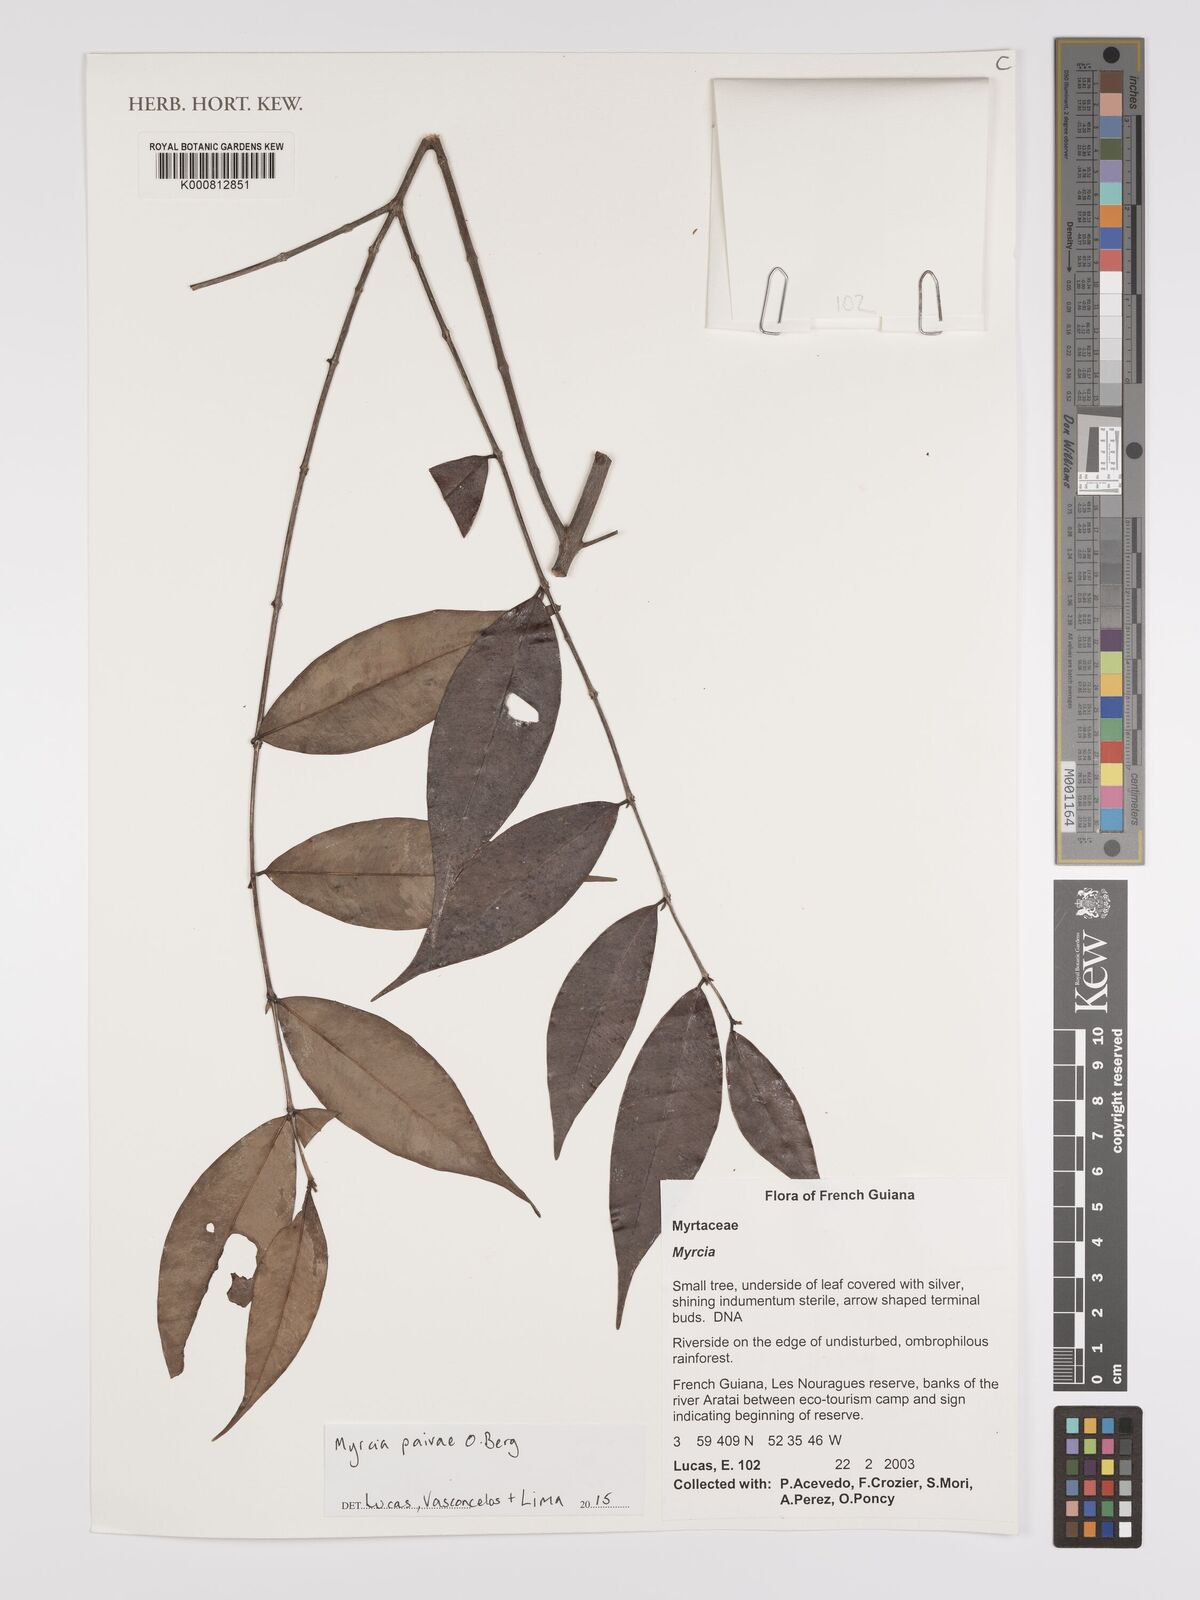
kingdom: Plantae
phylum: Tracheophyta
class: Magnoliopsida
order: Myrtales
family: Myrtaceae
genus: Myrcia
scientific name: Myrcia paivae
